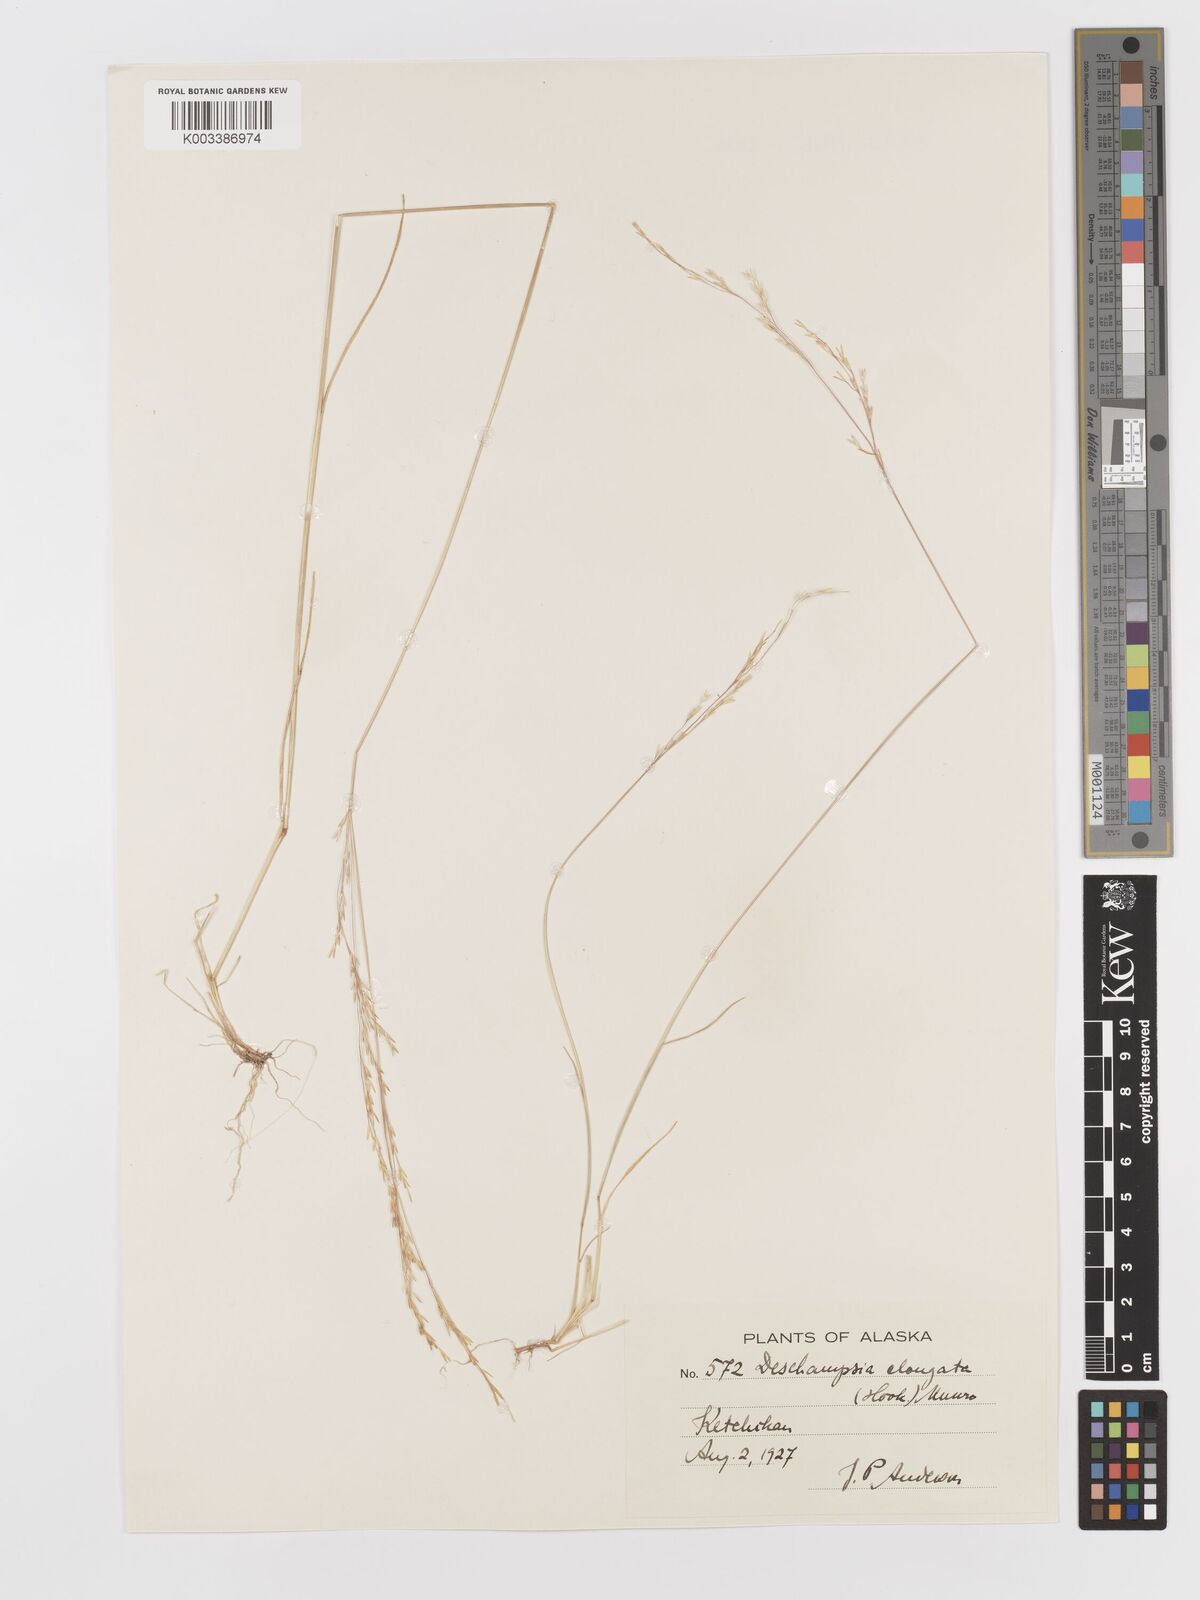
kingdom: Plantae
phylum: Tracheophyta
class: Liliopsida
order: Poales
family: Poaceae
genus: Deschampsia
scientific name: Deschampsia elongata
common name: Slender hairgrass
